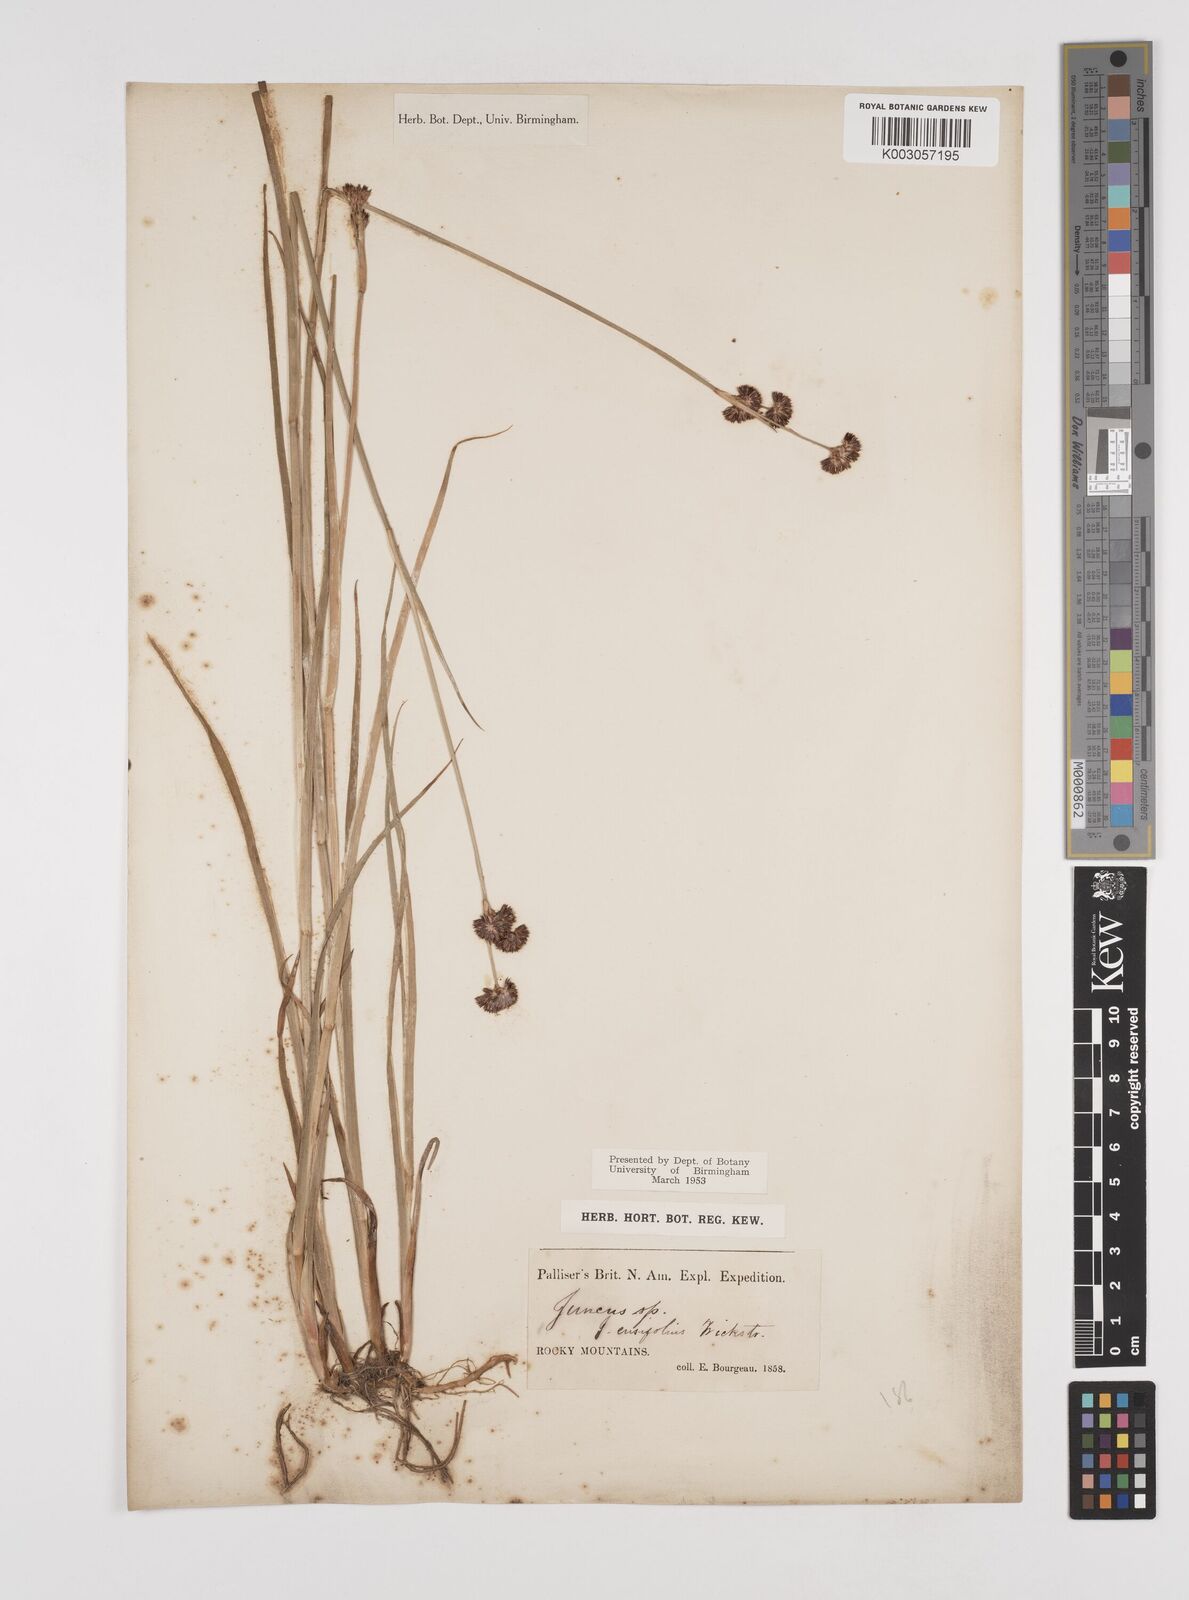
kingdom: Plantae
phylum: Tracheophyta
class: Liliopsida
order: Poales
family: Juncaceae
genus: Juncus
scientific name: Juncus ensifolius
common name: Sword-leaved rush
